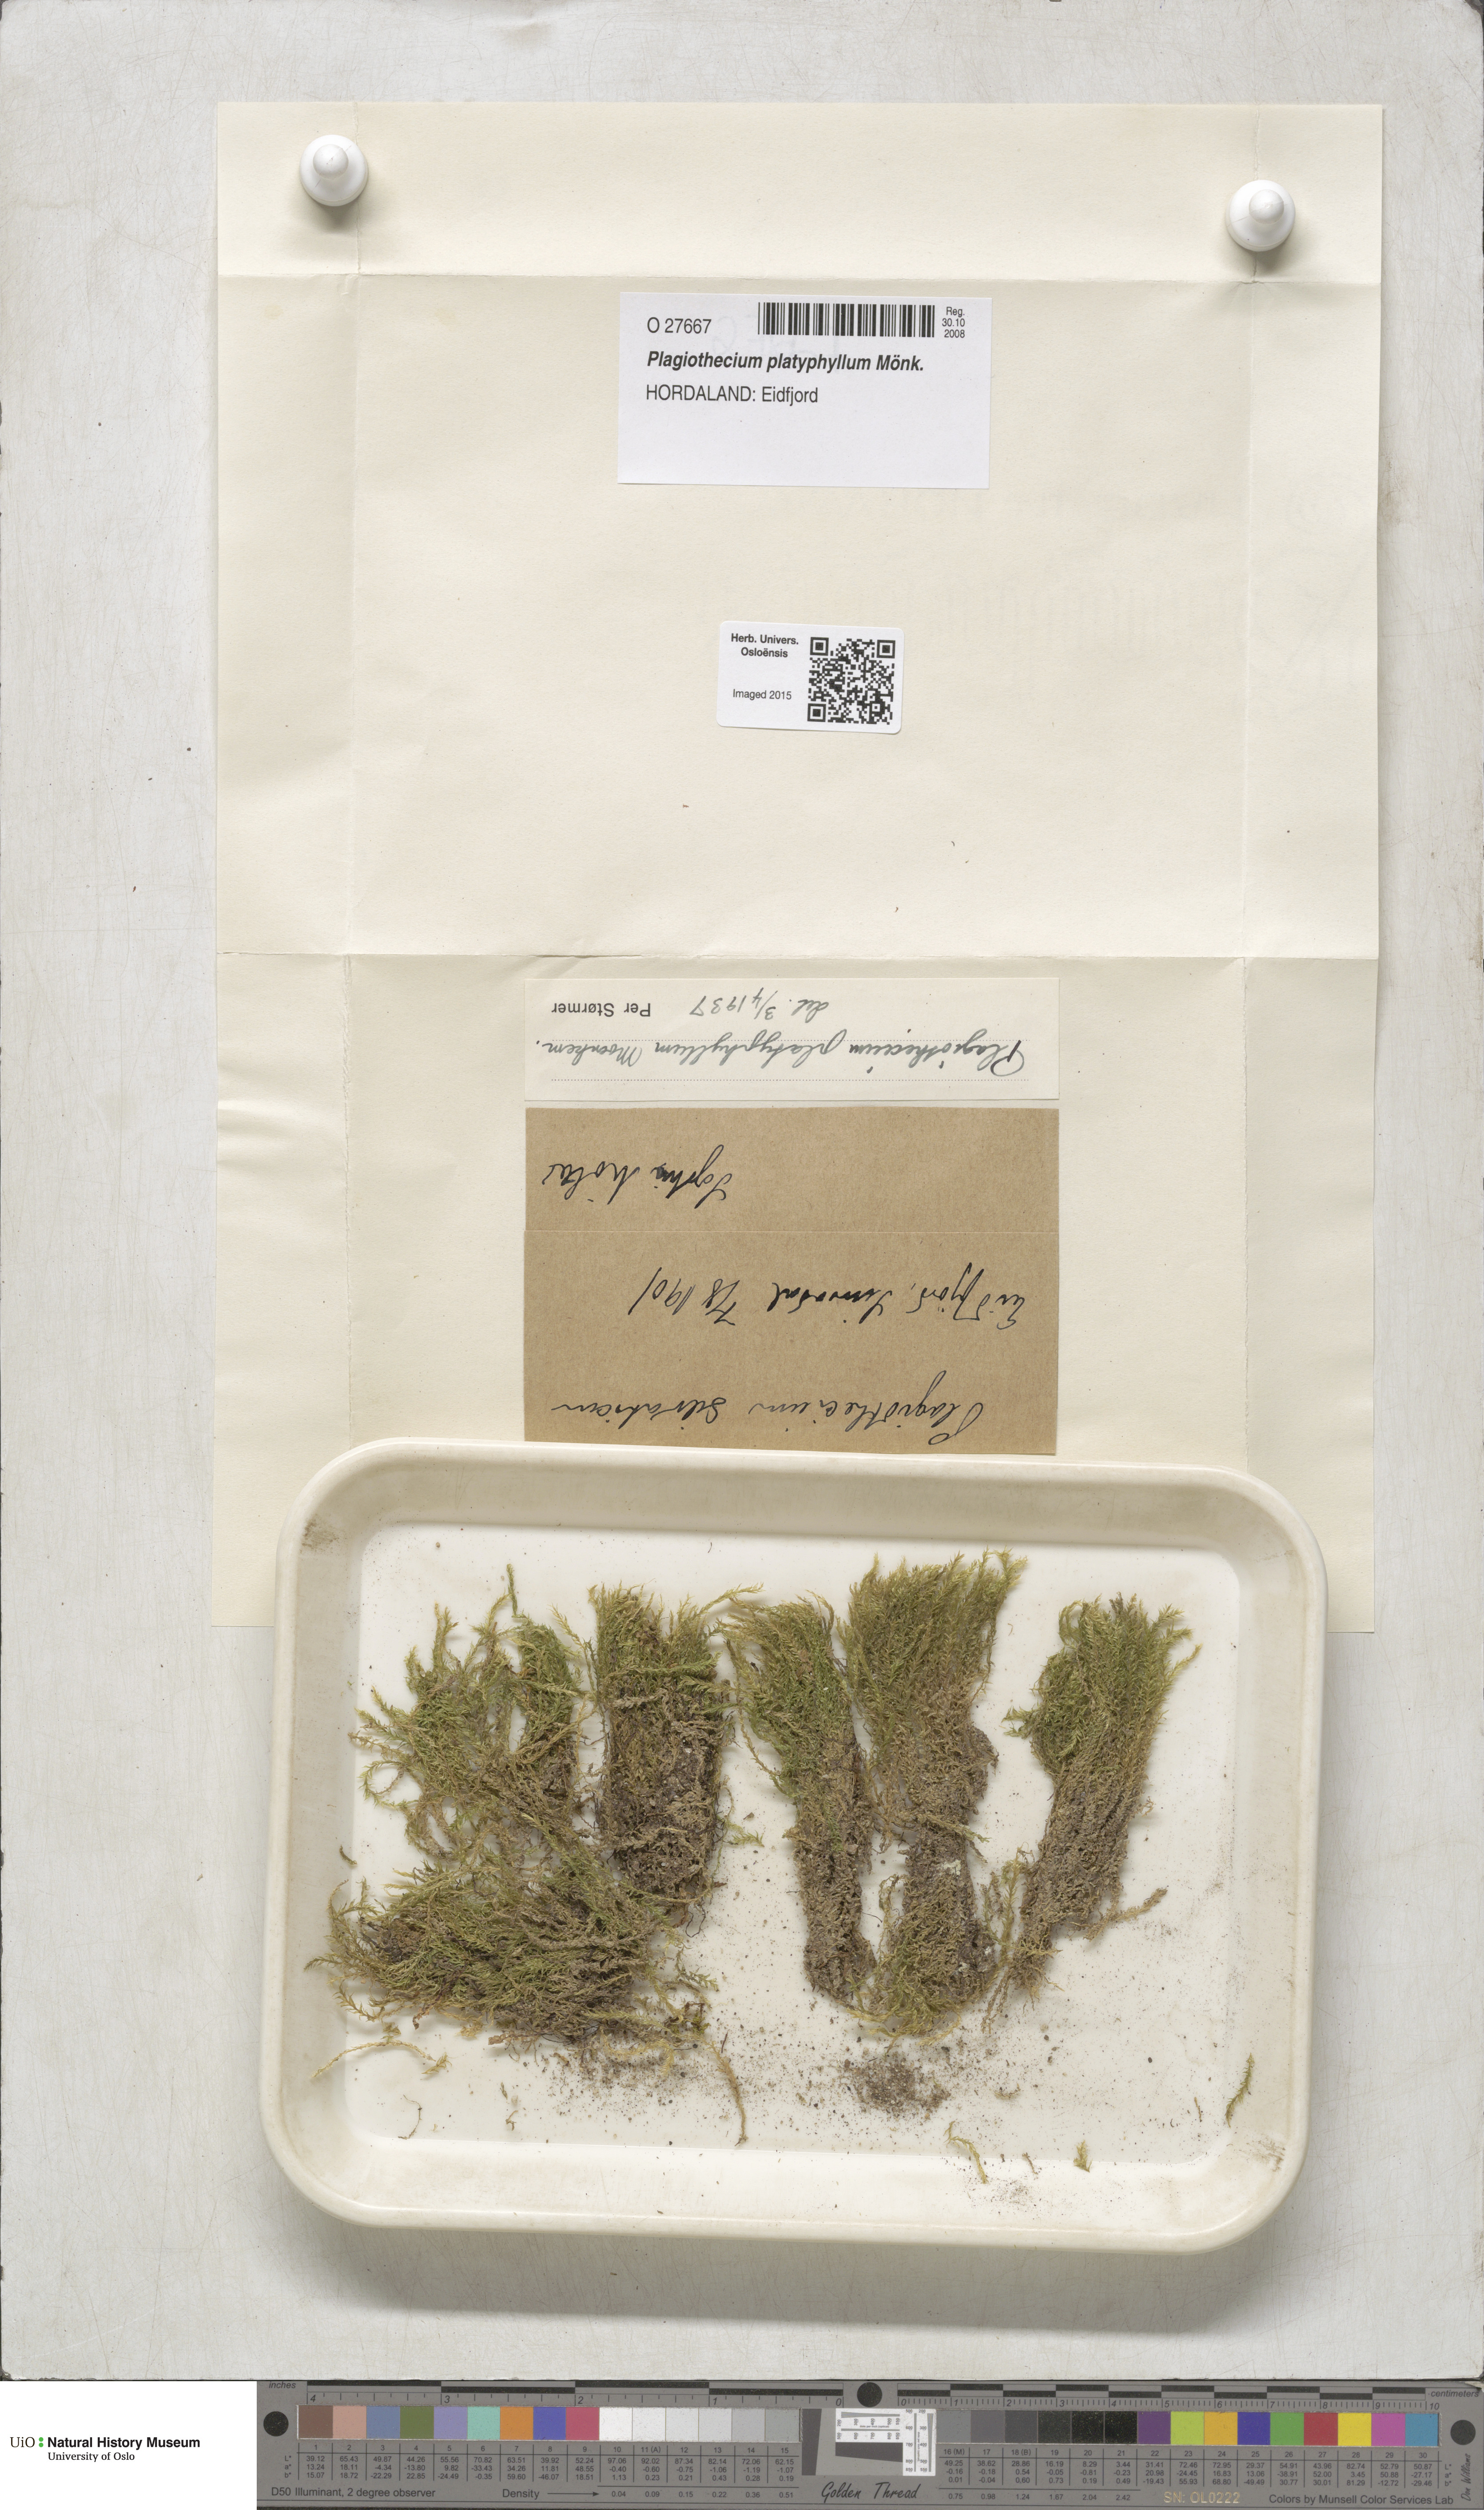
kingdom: Plantae
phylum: Bryophyta
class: Bryopsida
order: Hypnales
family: Plagiotheciaceae
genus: Plagiothecium
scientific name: Plagiothecium platyphyllum
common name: Alpine silk-moss
